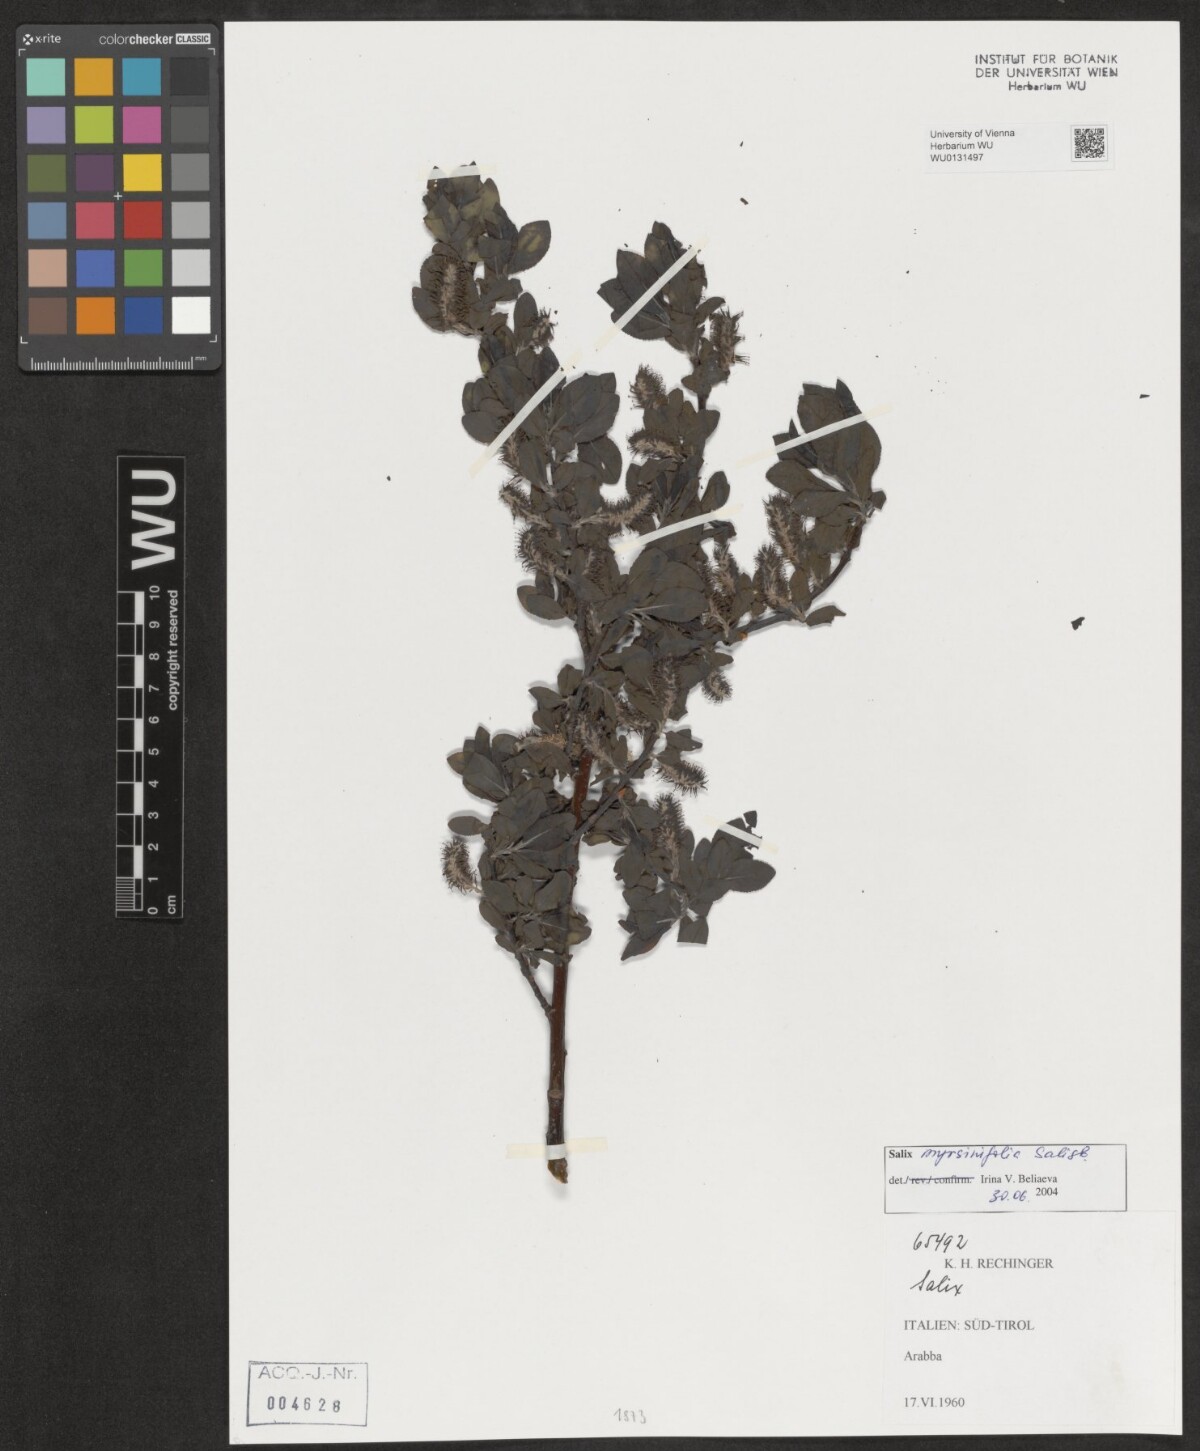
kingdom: Plantae
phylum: Tracheophyta
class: Magnoliopsida
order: Malpighiales
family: Salicaceae
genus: Salix
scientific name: Salix myrsinifolia
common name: Dark-leaved willow
